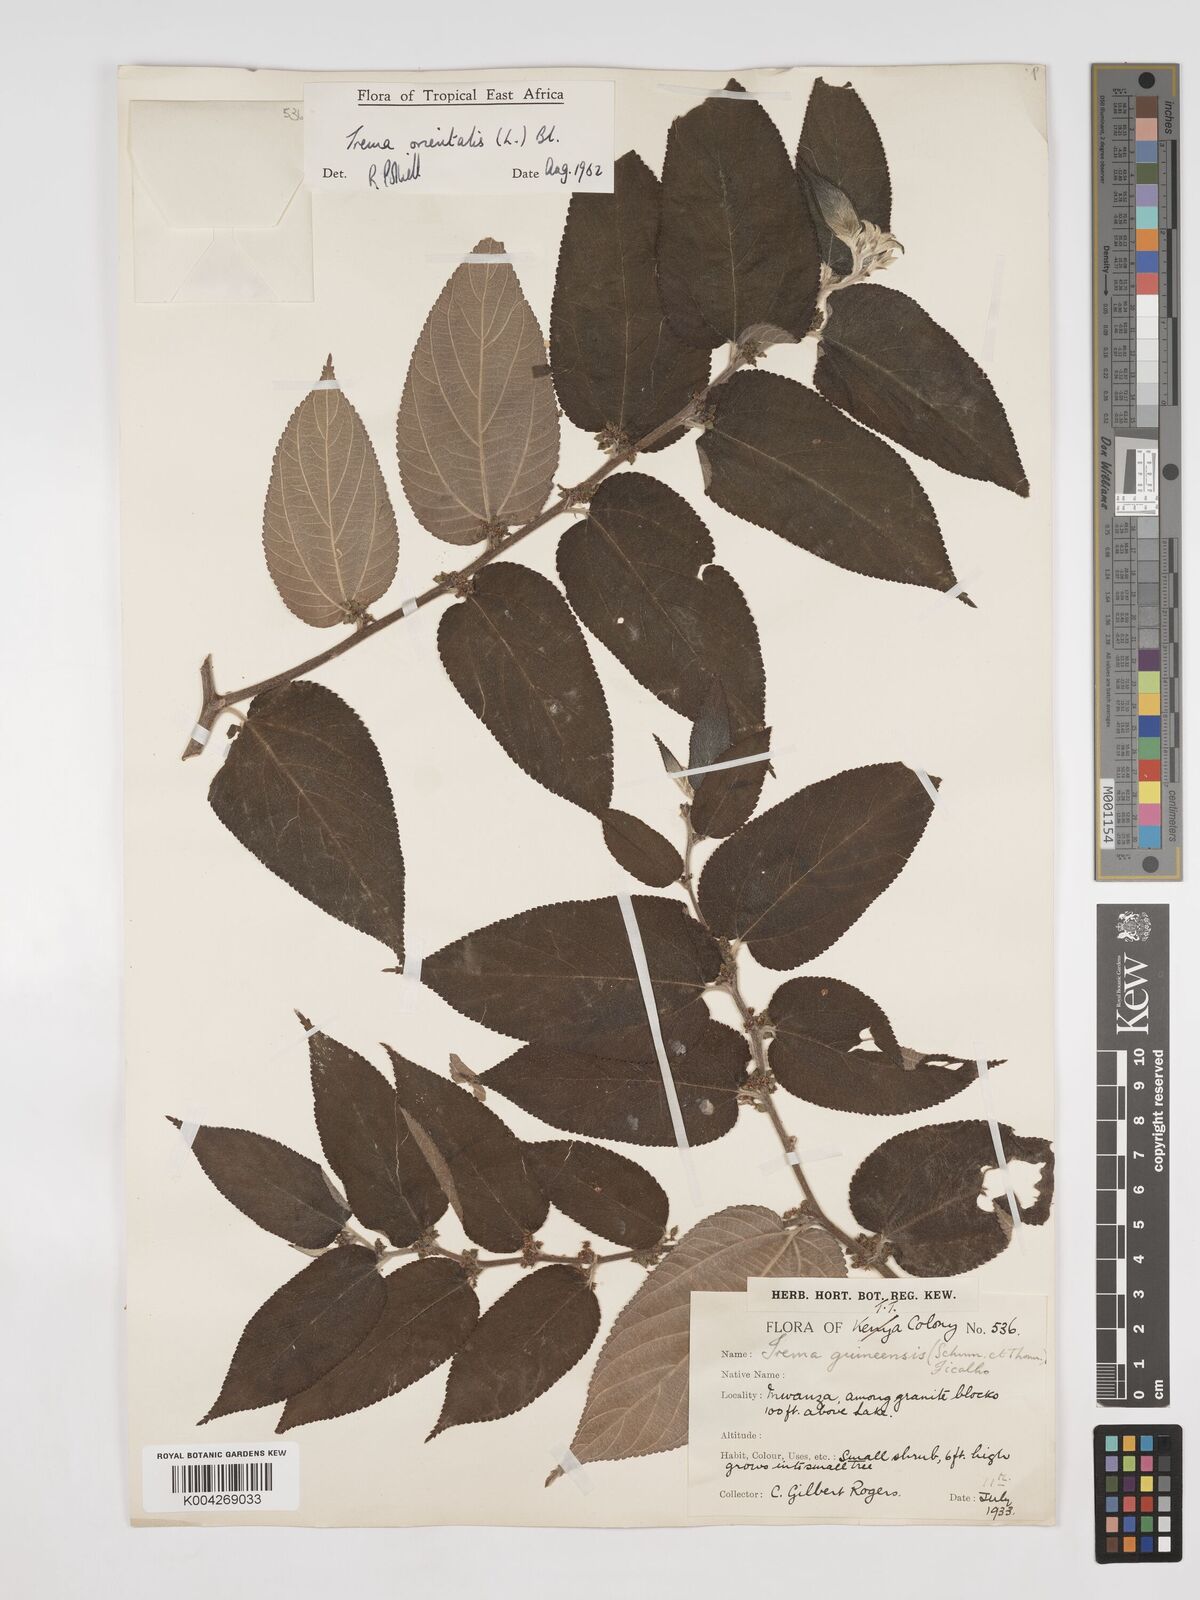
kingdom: Plantae
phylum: Tracheophyta
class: Magnoliopsida
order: Rosales
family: Cannabaceae
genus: Trema
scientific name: Trema orientale
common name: Indian charcoal tree
